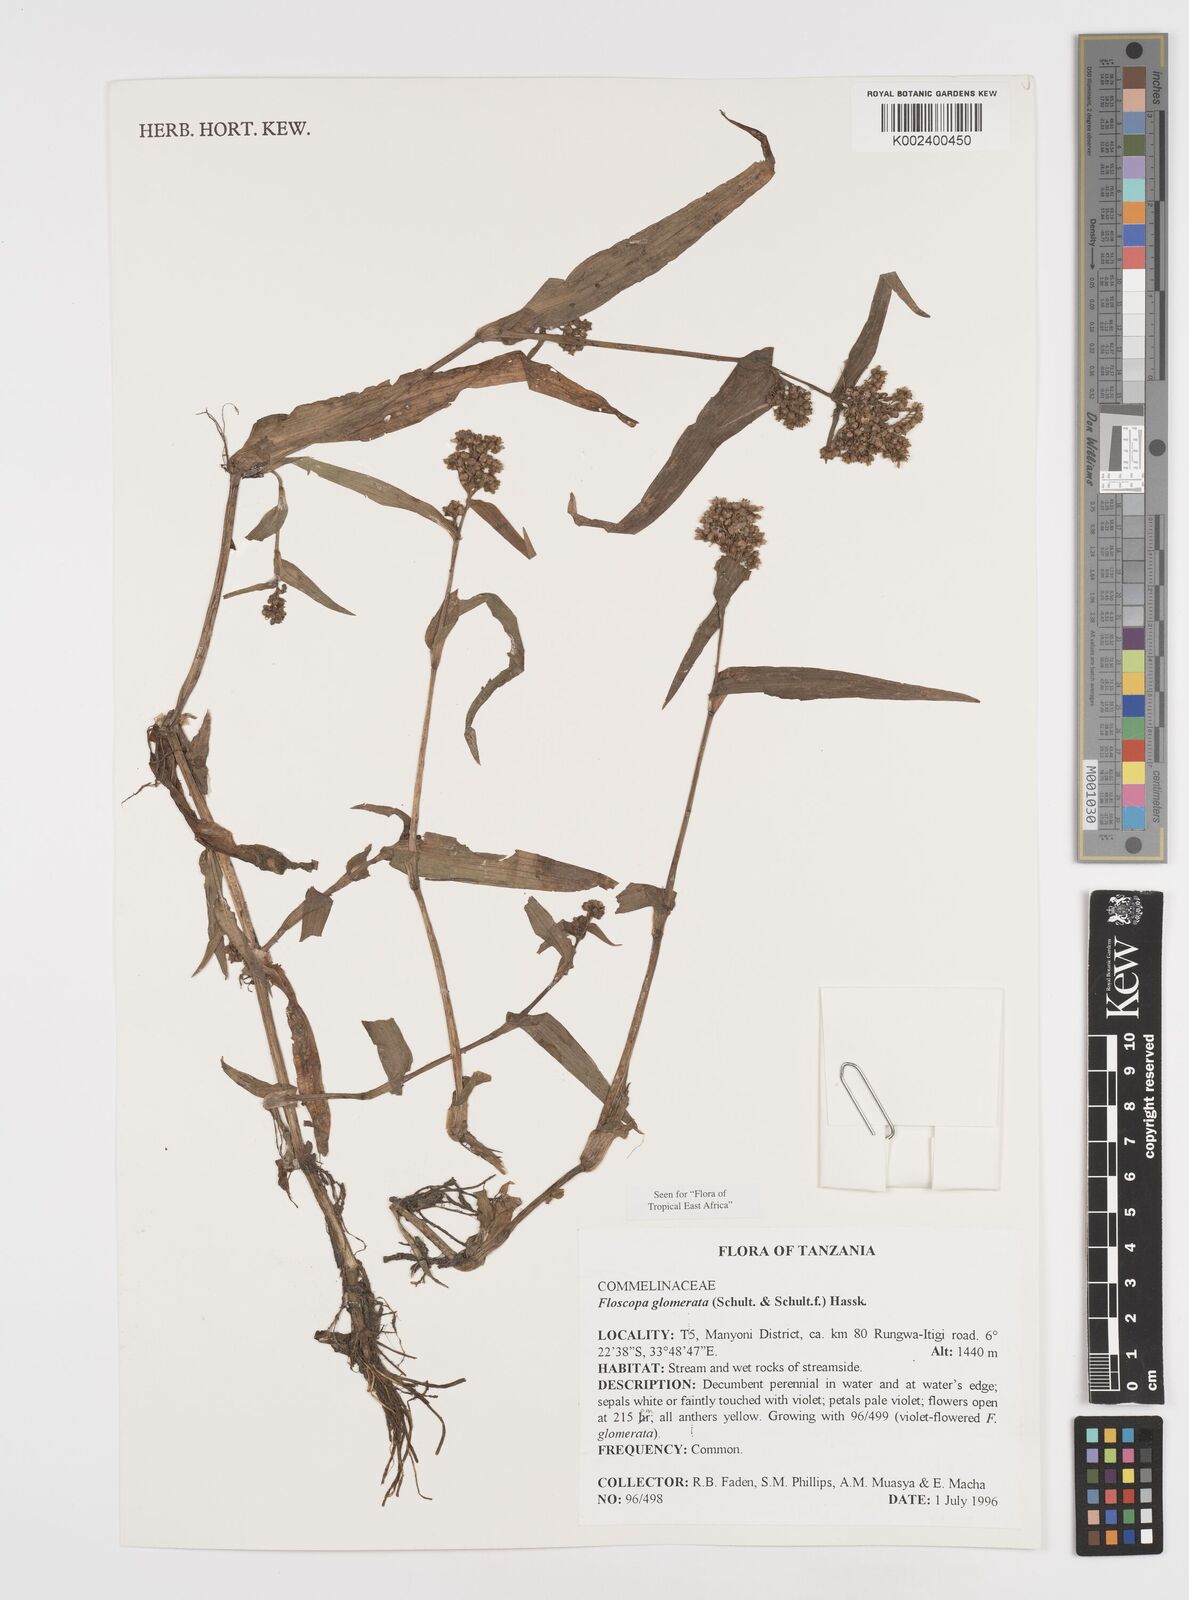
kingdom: Plantae
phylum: Tracheophyta
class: Liliopsida
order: Commelinales
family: Commelinaceae
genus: Floscopa
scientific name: Floscopa glomerata
